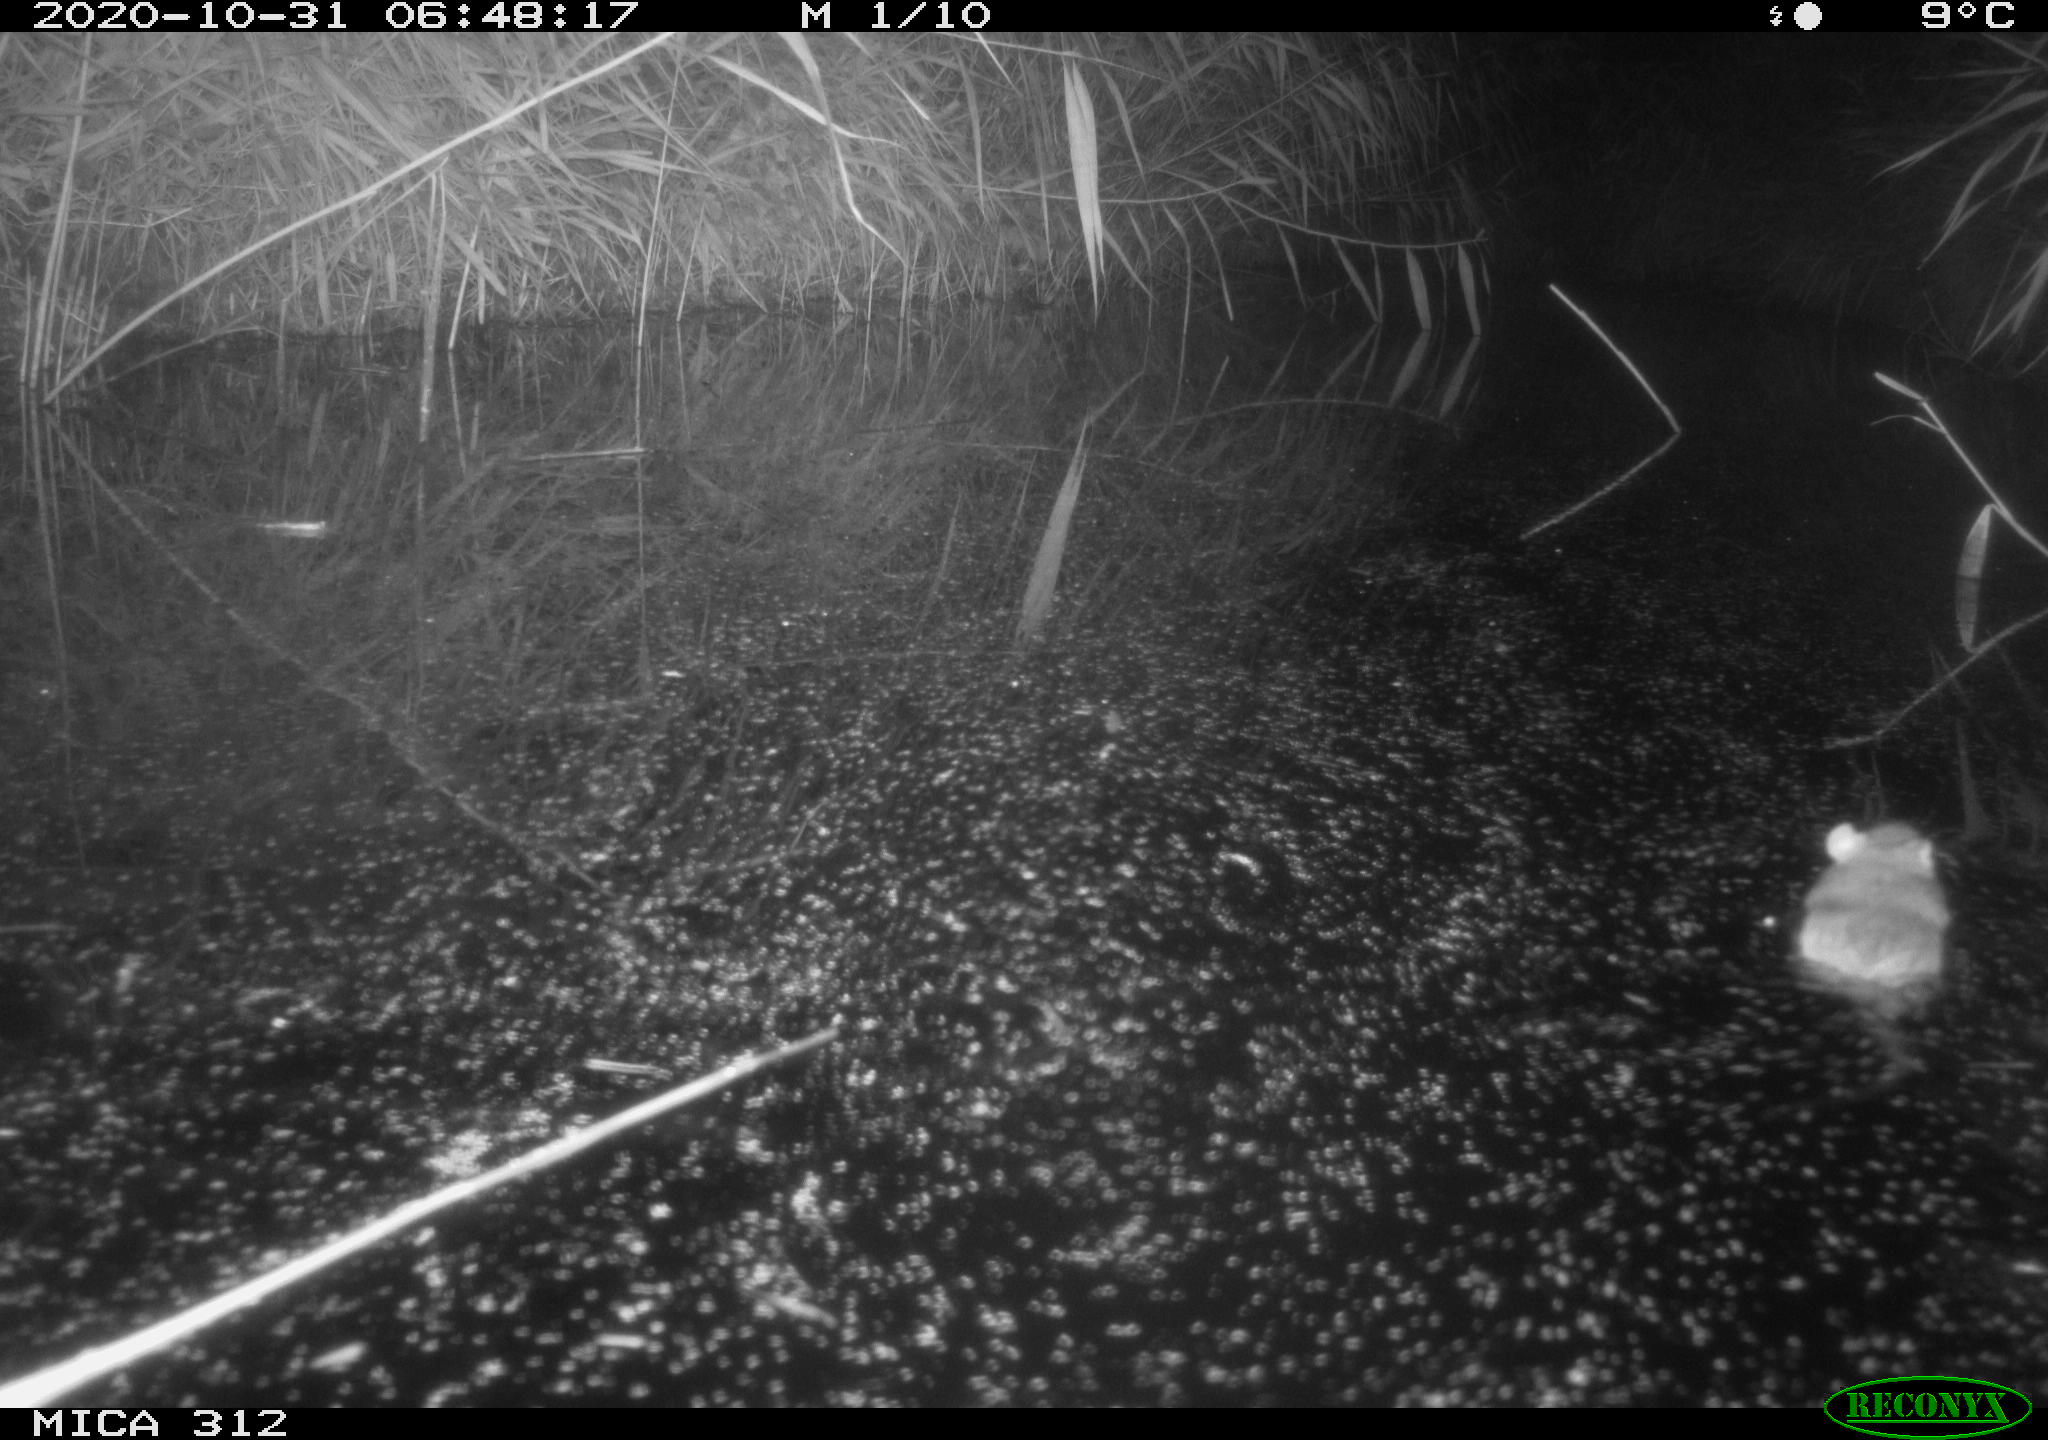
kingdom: Animalia
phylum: Chordata
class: Mammalia
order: Rodentia
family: Muridae
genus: Rattus
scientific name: Rattus norvegicus
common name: Brown rat
